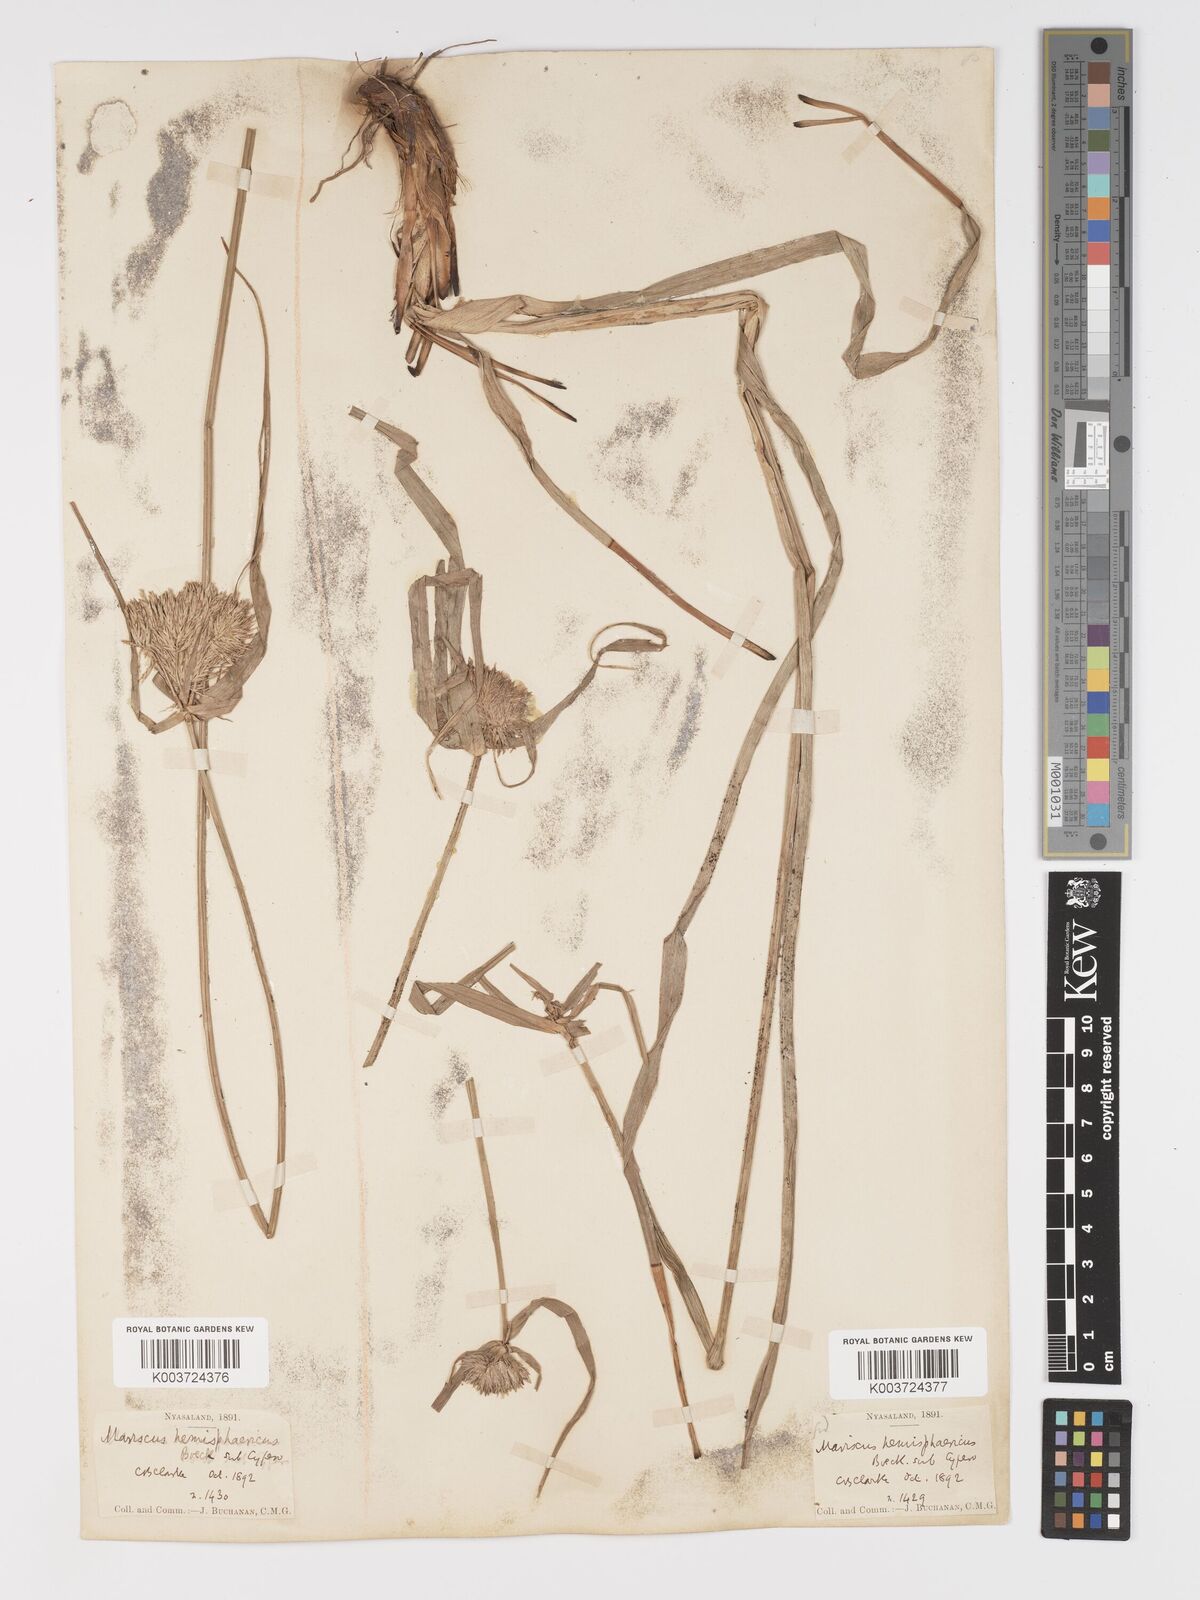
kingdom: Plantae
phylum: Tracheophyta
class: Liliopsida
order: Poales
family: Cyperaceae
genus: Cyperus
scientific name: Cyperus hemisphaericus
